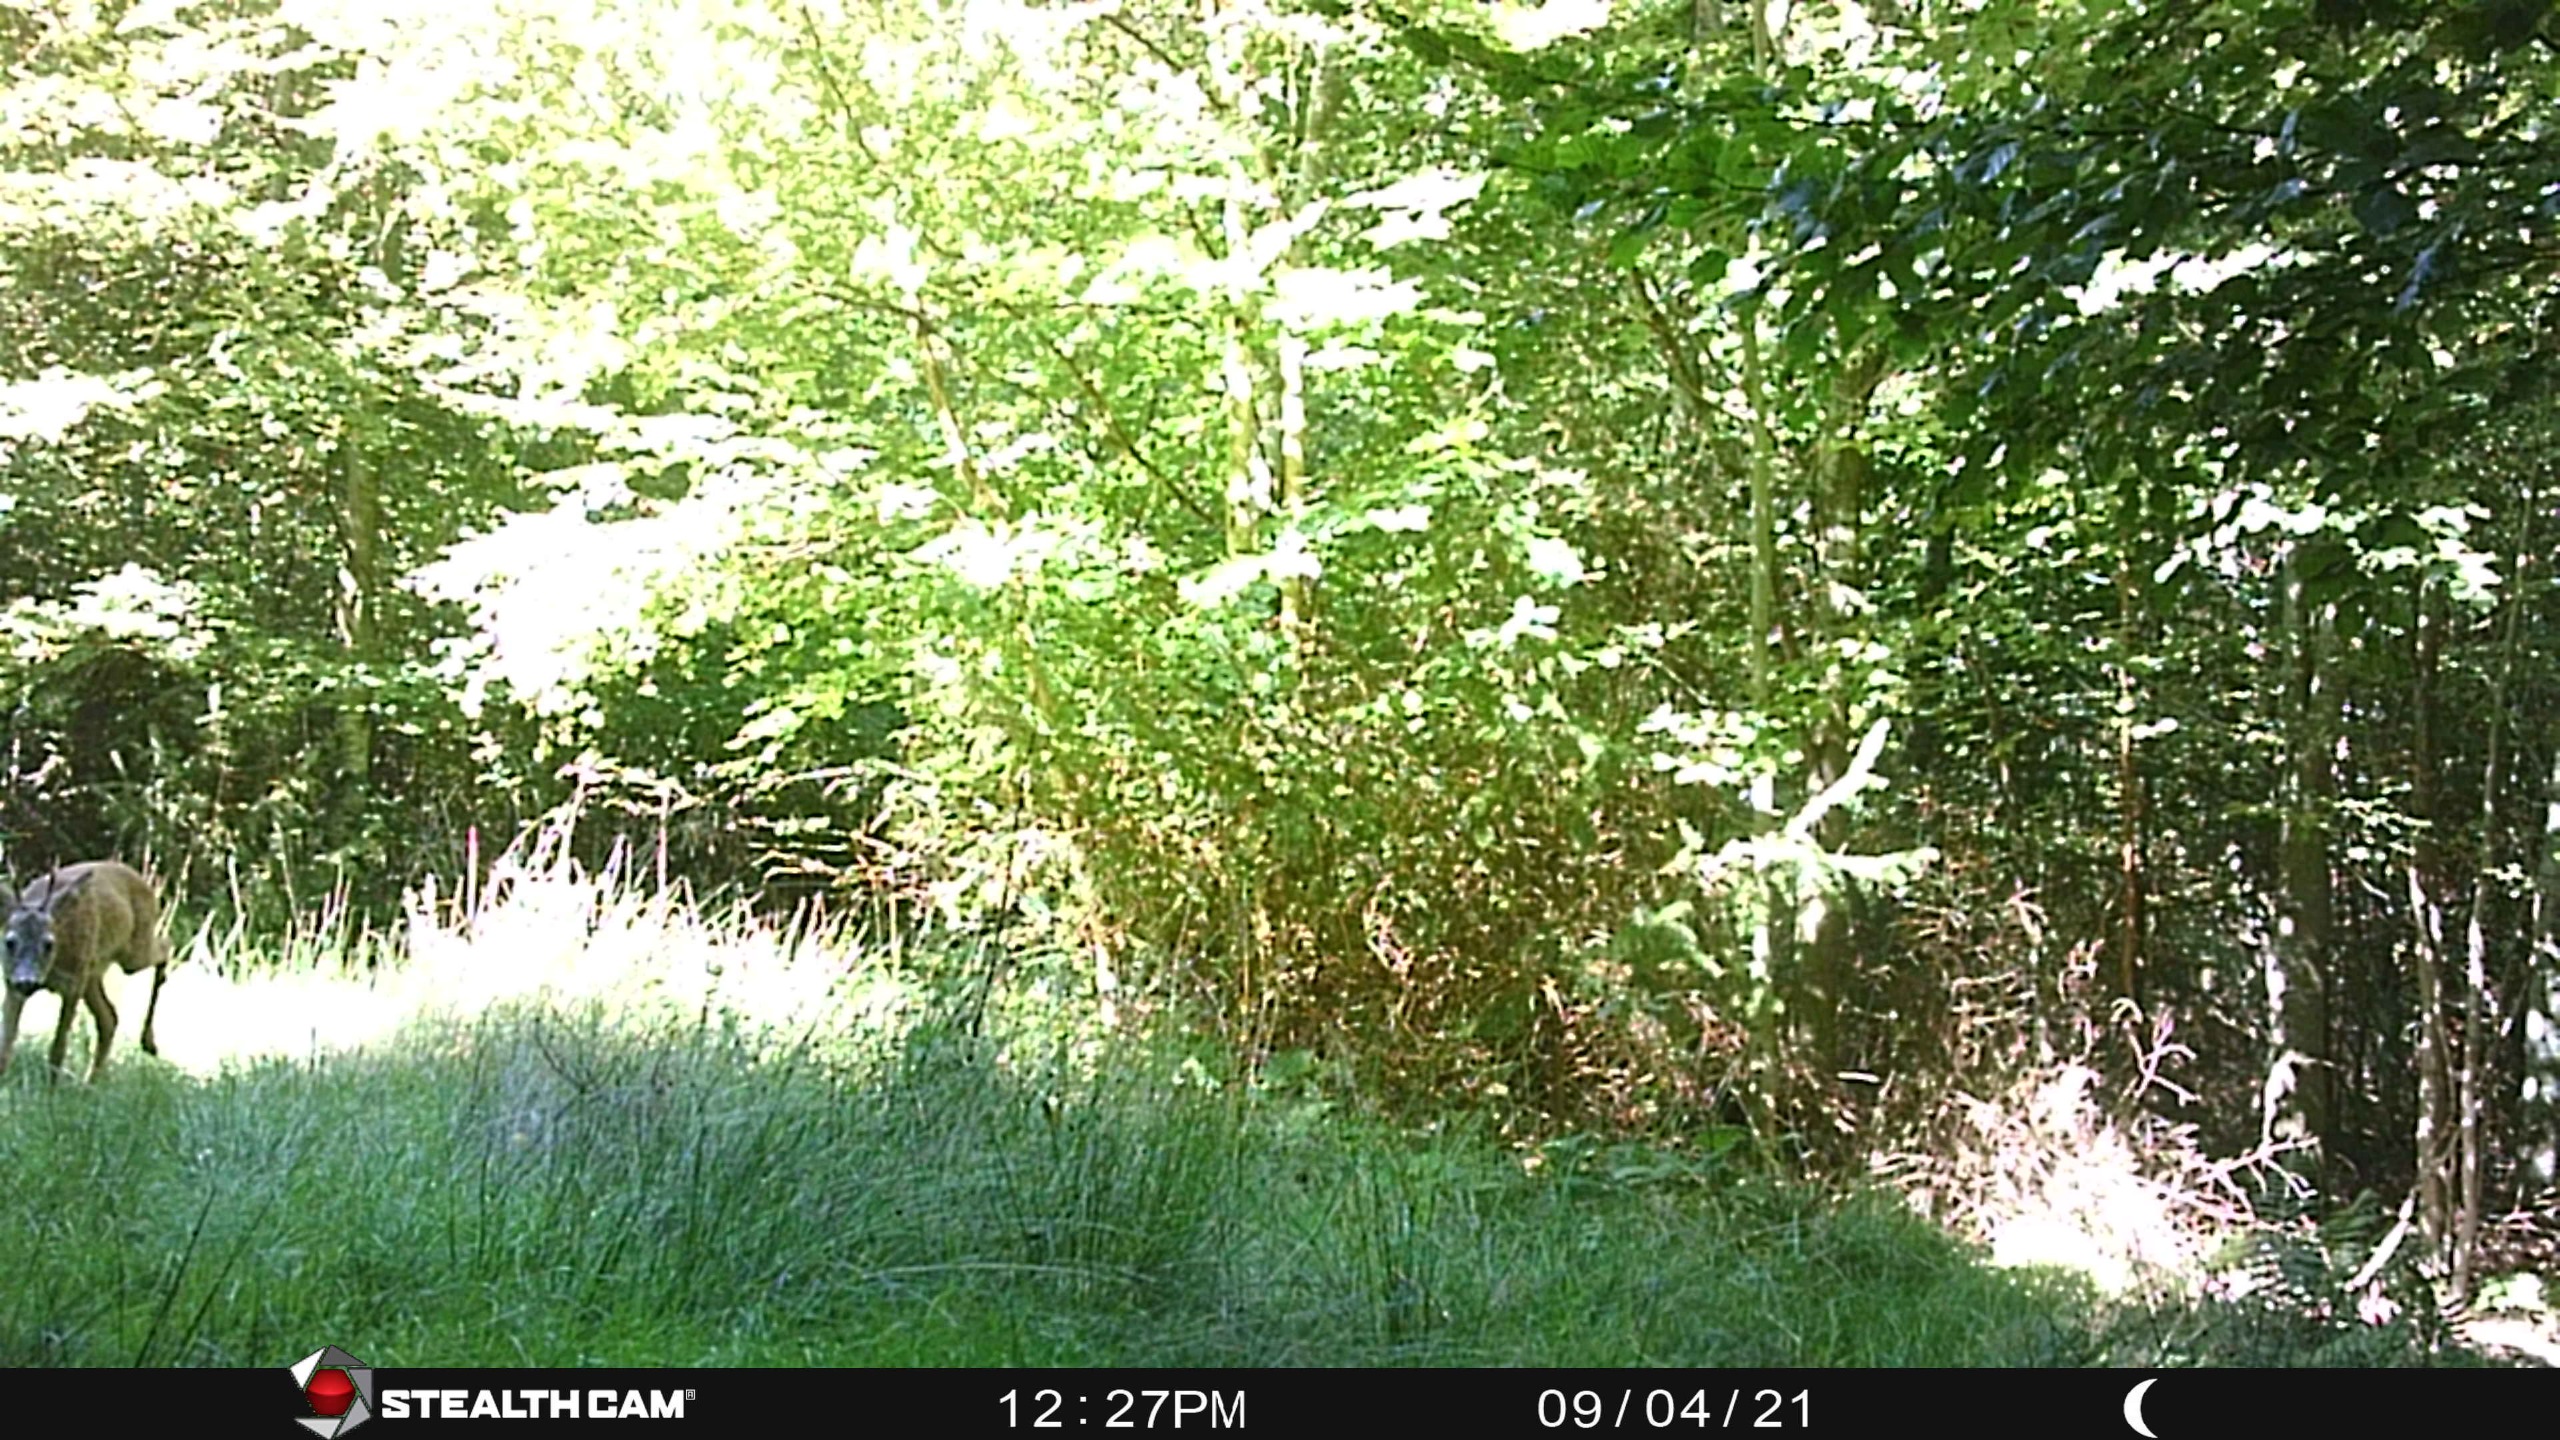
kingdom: Animalia
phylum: Chordata
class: Mammalia
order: Artiodactyla
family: Cervidae
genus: Capreolus
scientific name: Capreolus capreolus
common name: Rådyr
